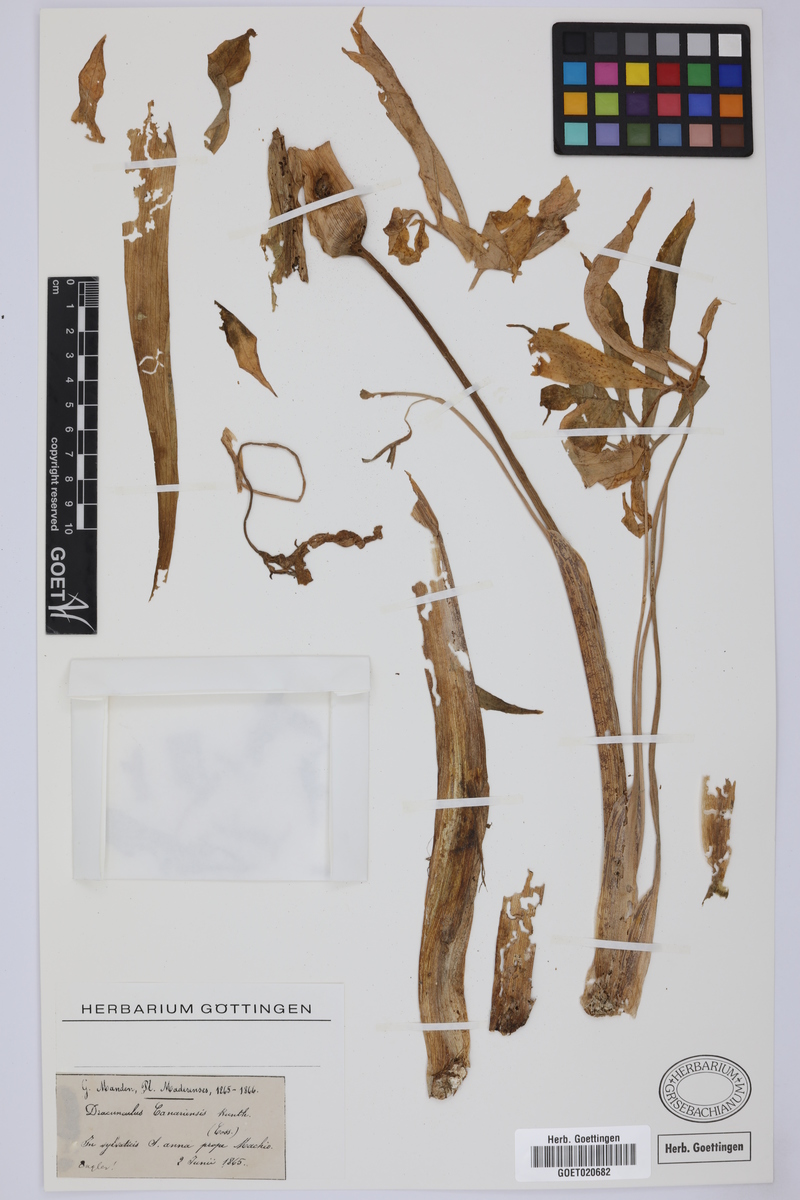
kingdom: Plantae
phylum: Tracheophyta
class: Liliopsida
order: Alismatales
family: Araceae
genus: Dracunculus
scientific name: Dracunculus canariensis
